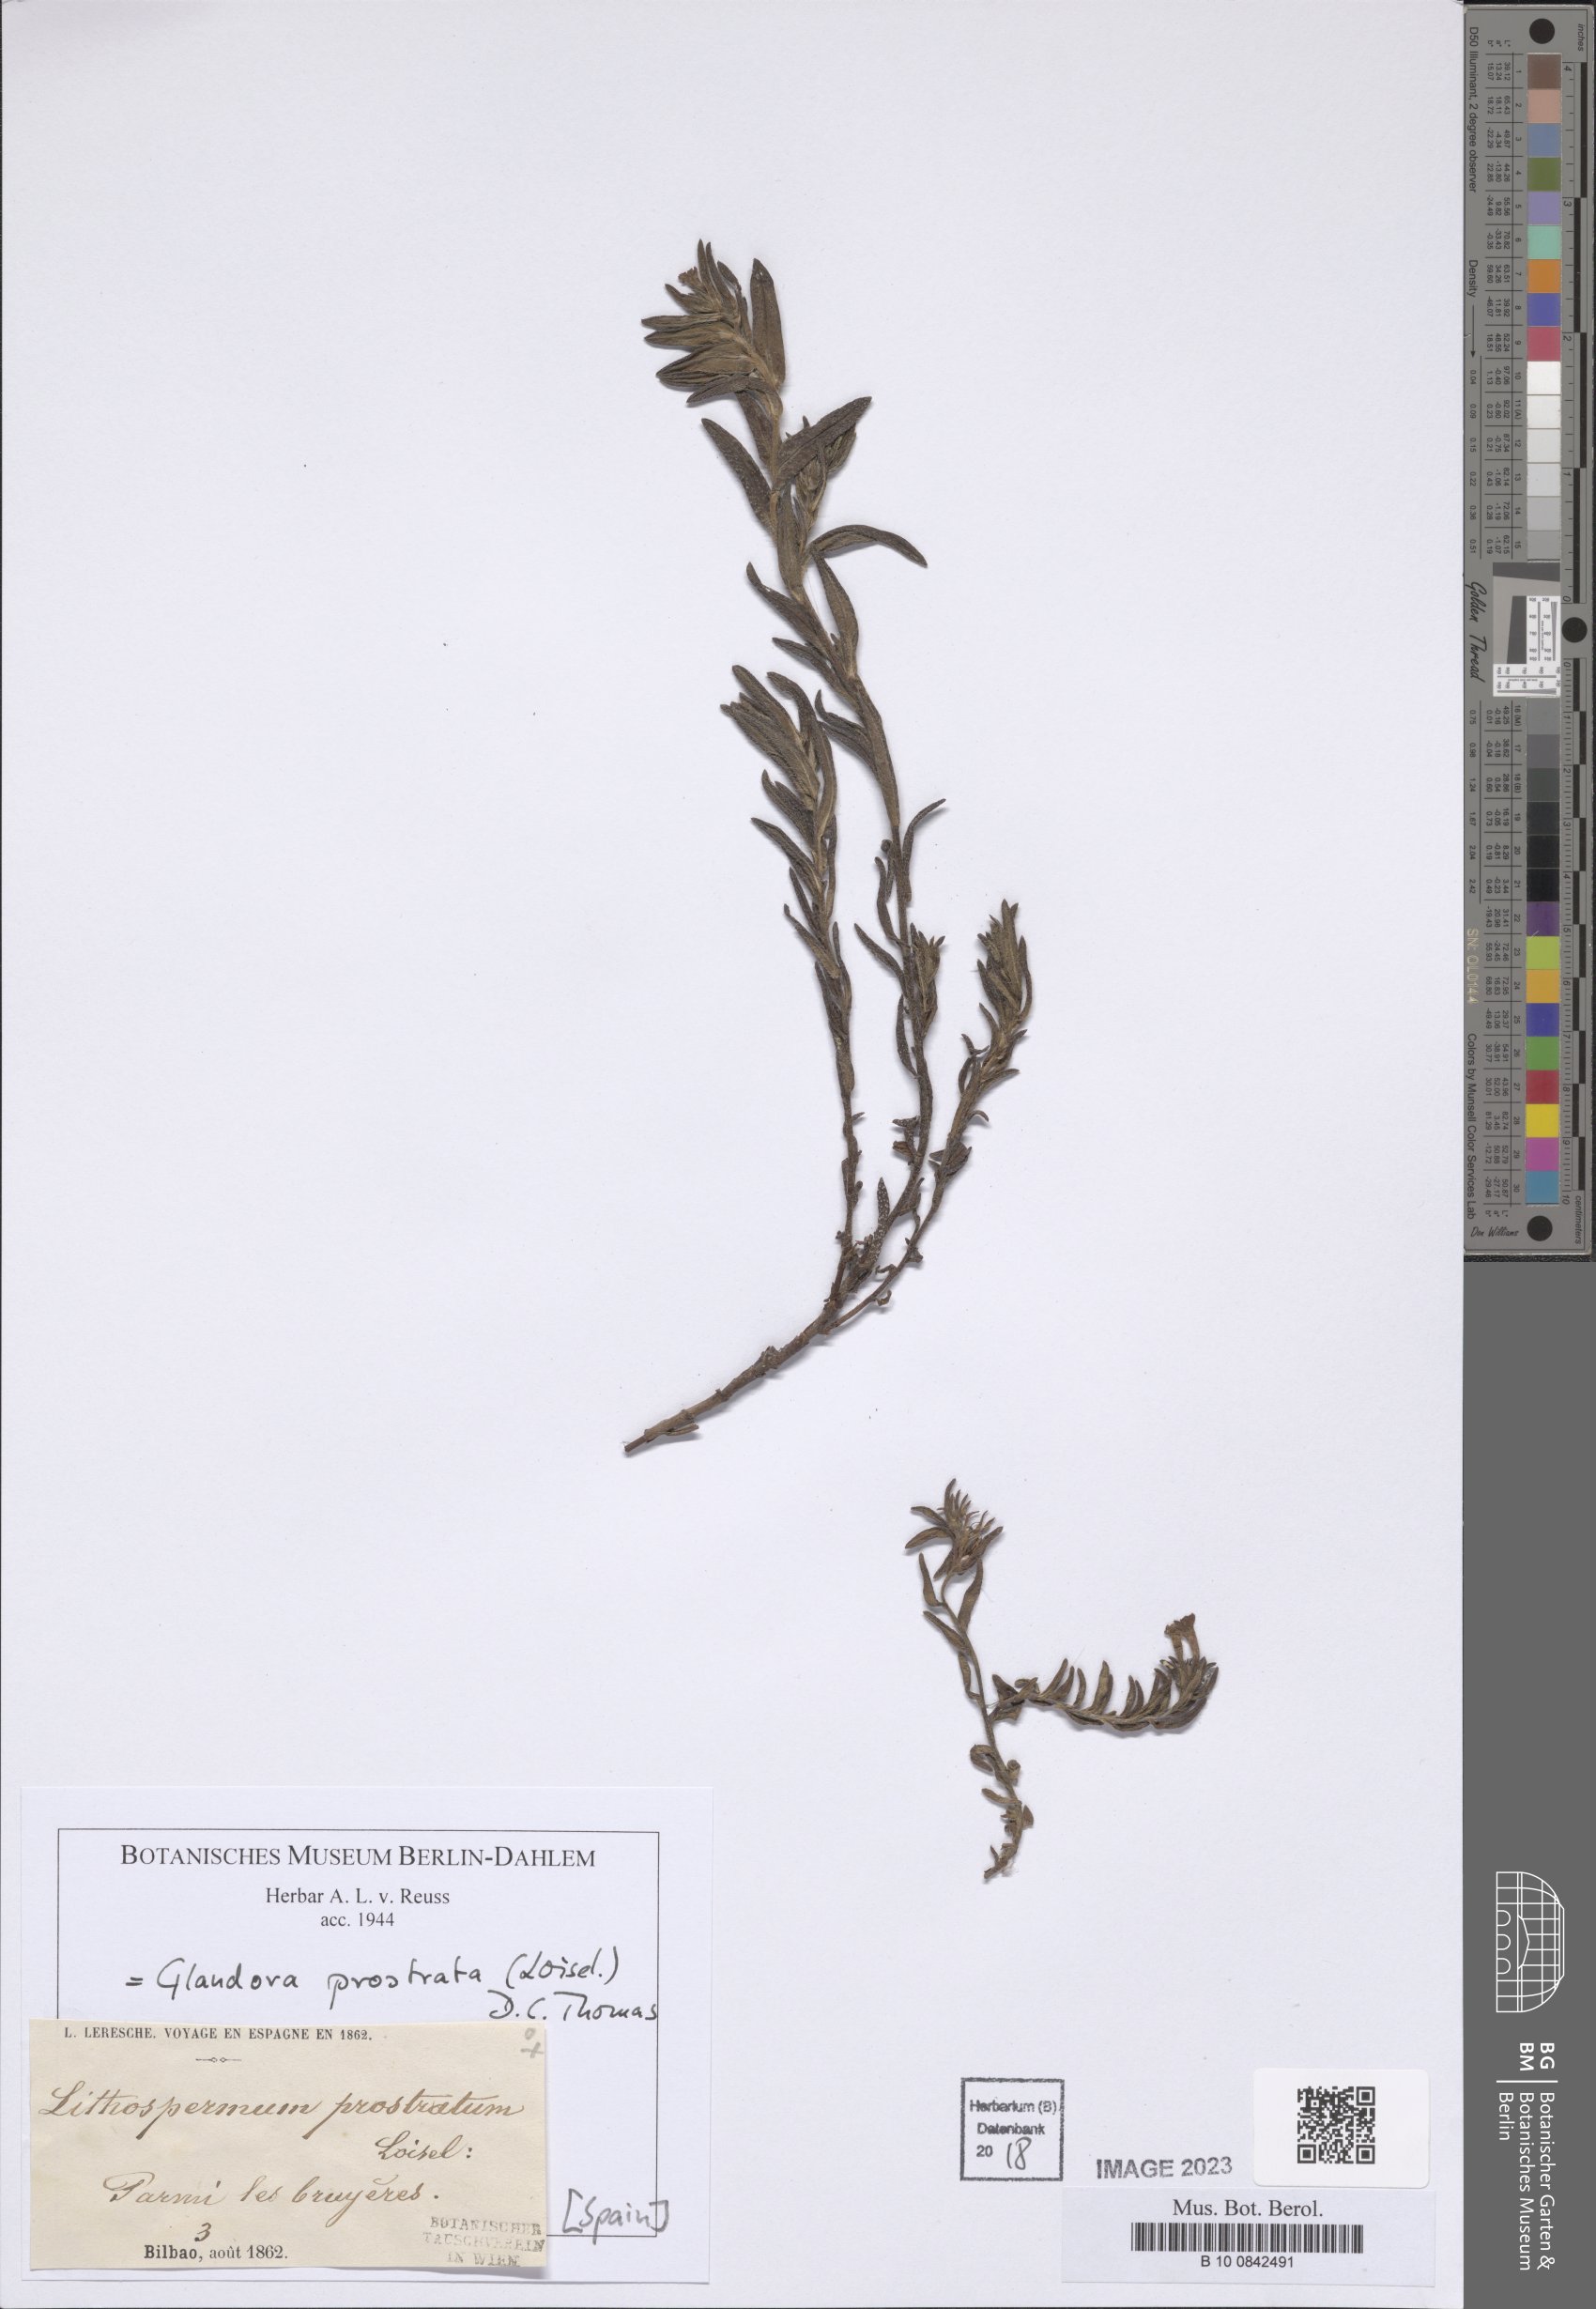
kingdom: Plantae
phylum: Tracheophyta
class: Magnoliopsida
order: Boraginales
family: Boraginaceae
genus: Glandora
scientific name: Glandora prostrata
